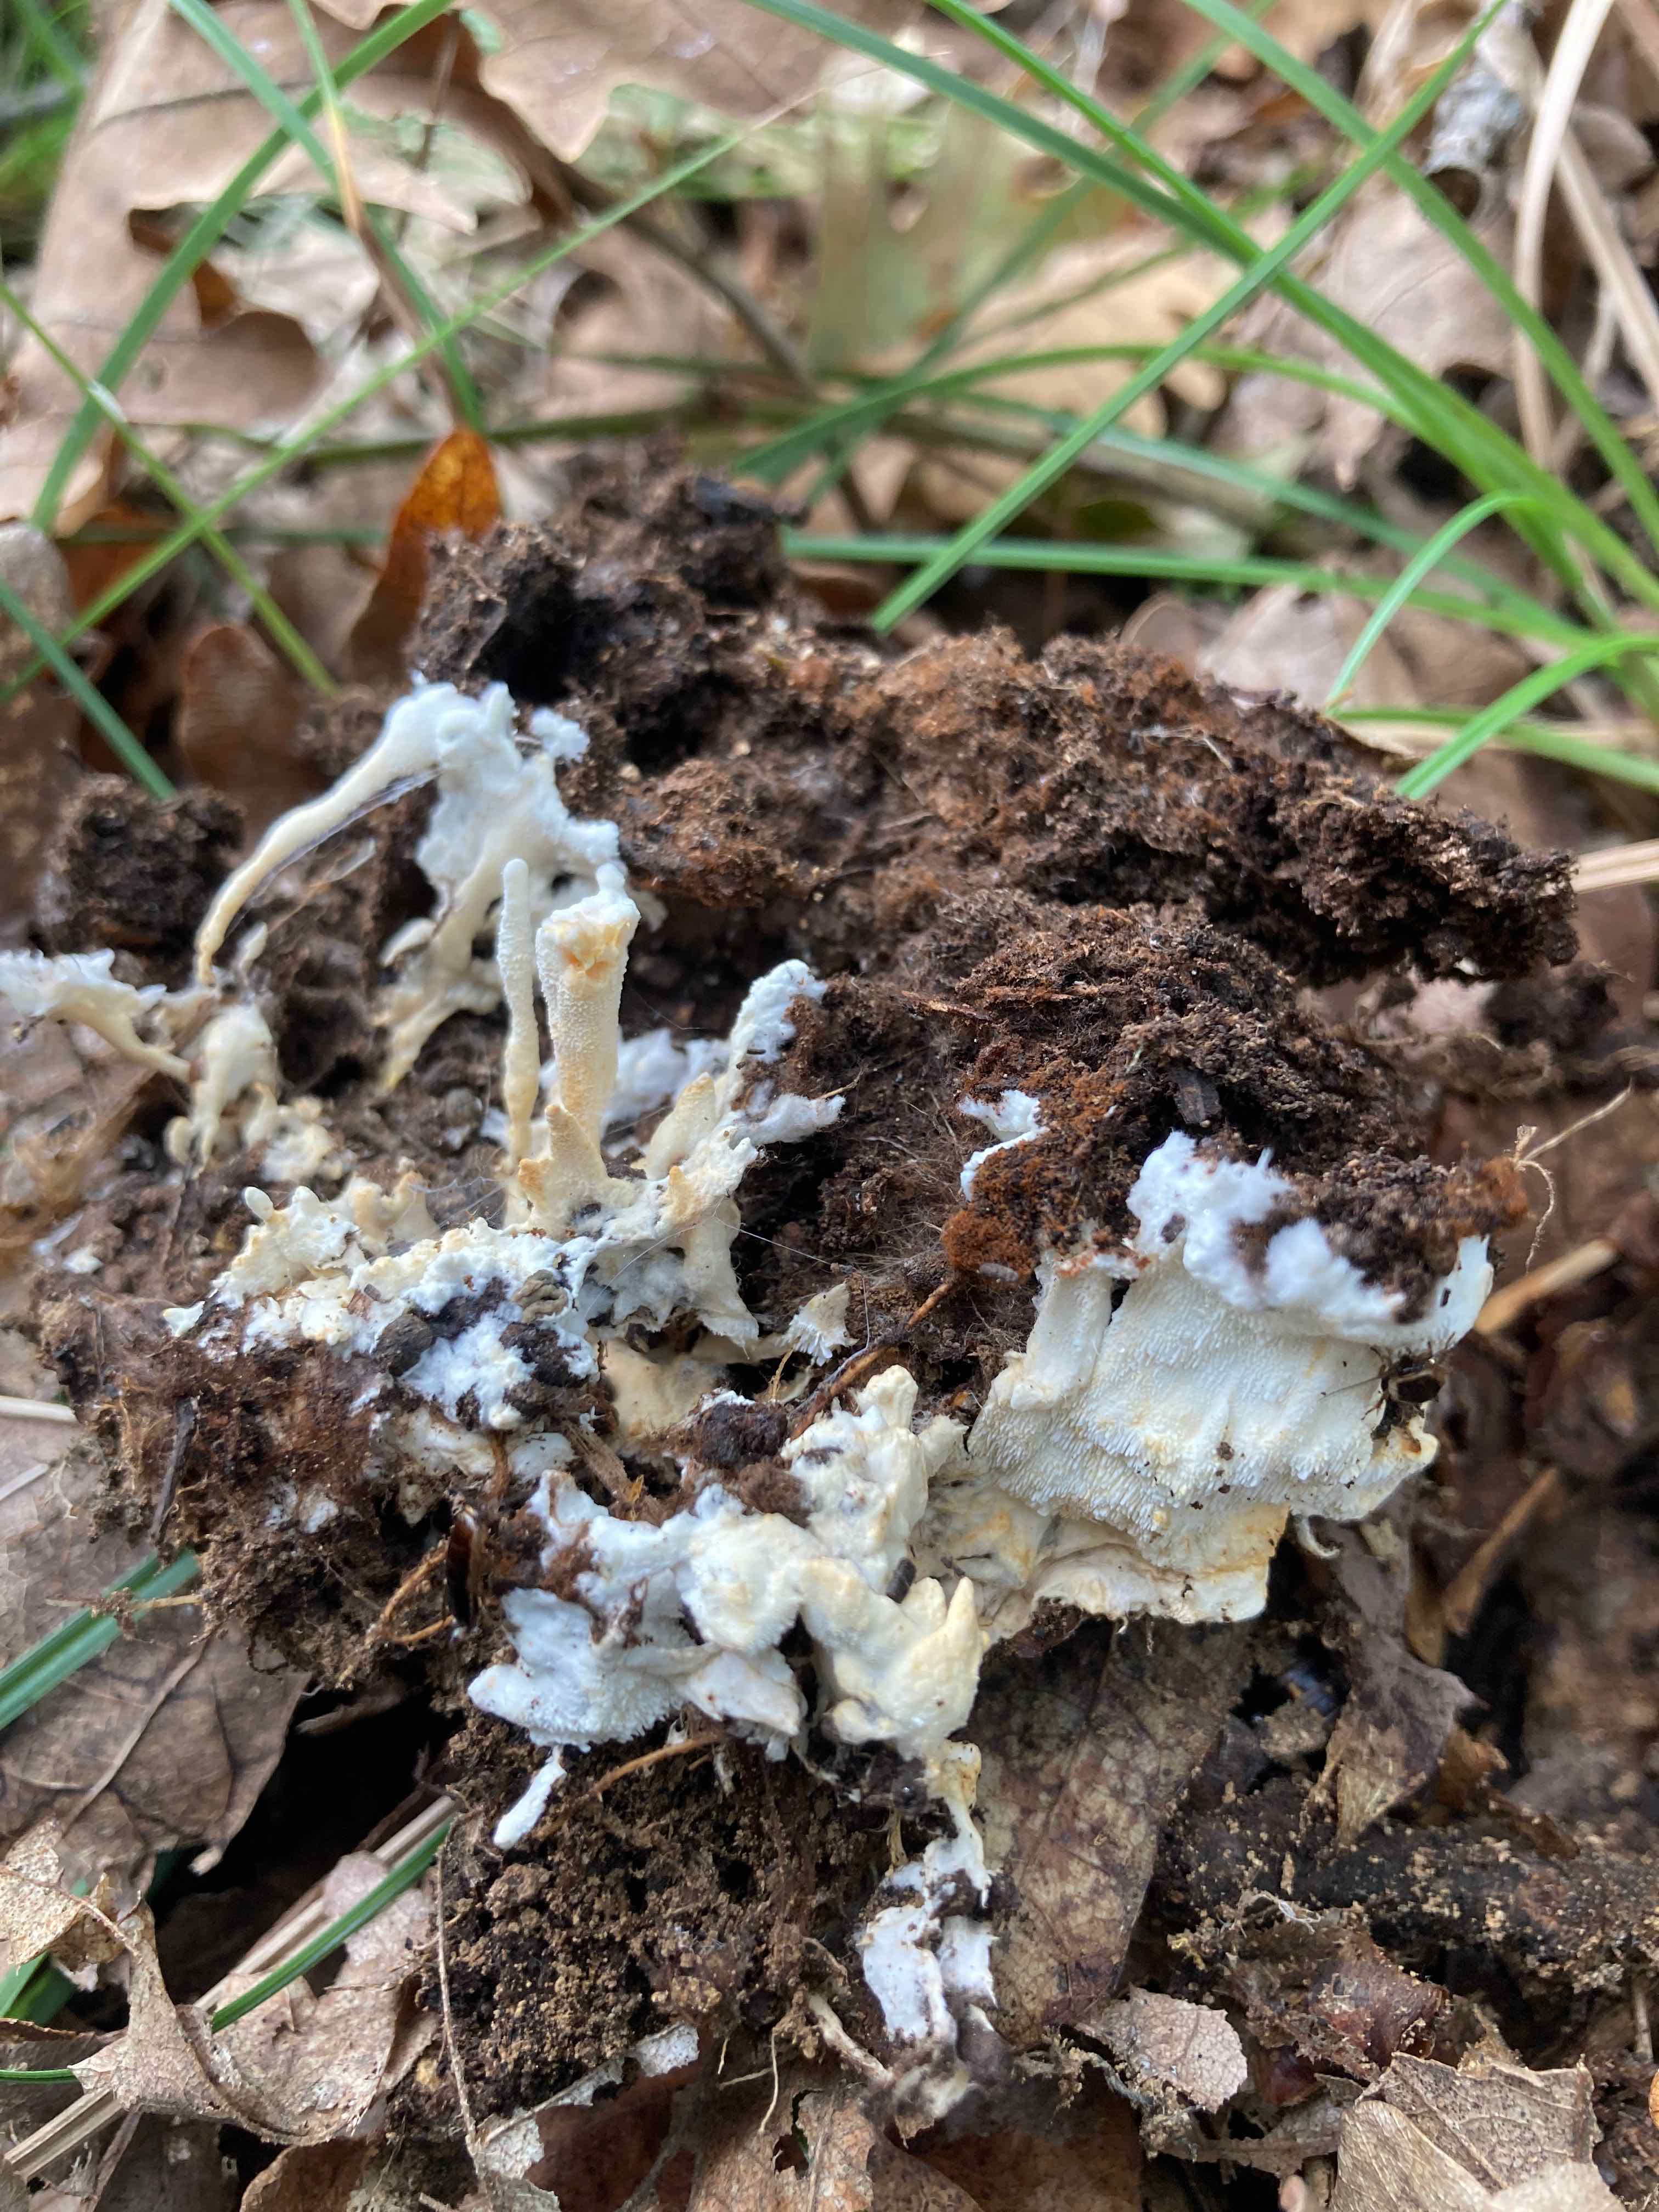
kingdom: Fungi
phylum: Basidiomycota
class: Agaricomycetes
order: Cantharellales
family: Hydnaceae
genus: Sistotrema
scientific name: Sistotrema confluens
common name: stilket kroneskorpe
